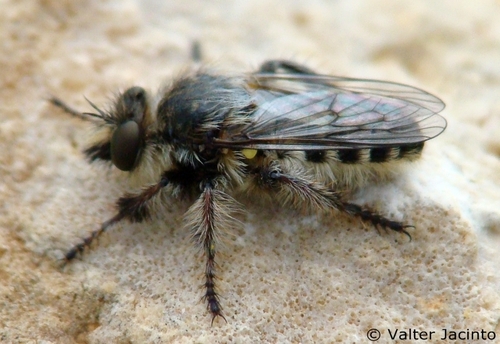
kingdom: Animalia
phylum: Arthropoda
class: Insecta
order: Diptera
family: Asilidae
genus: Pycnopogon
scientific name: Pycnopogon
